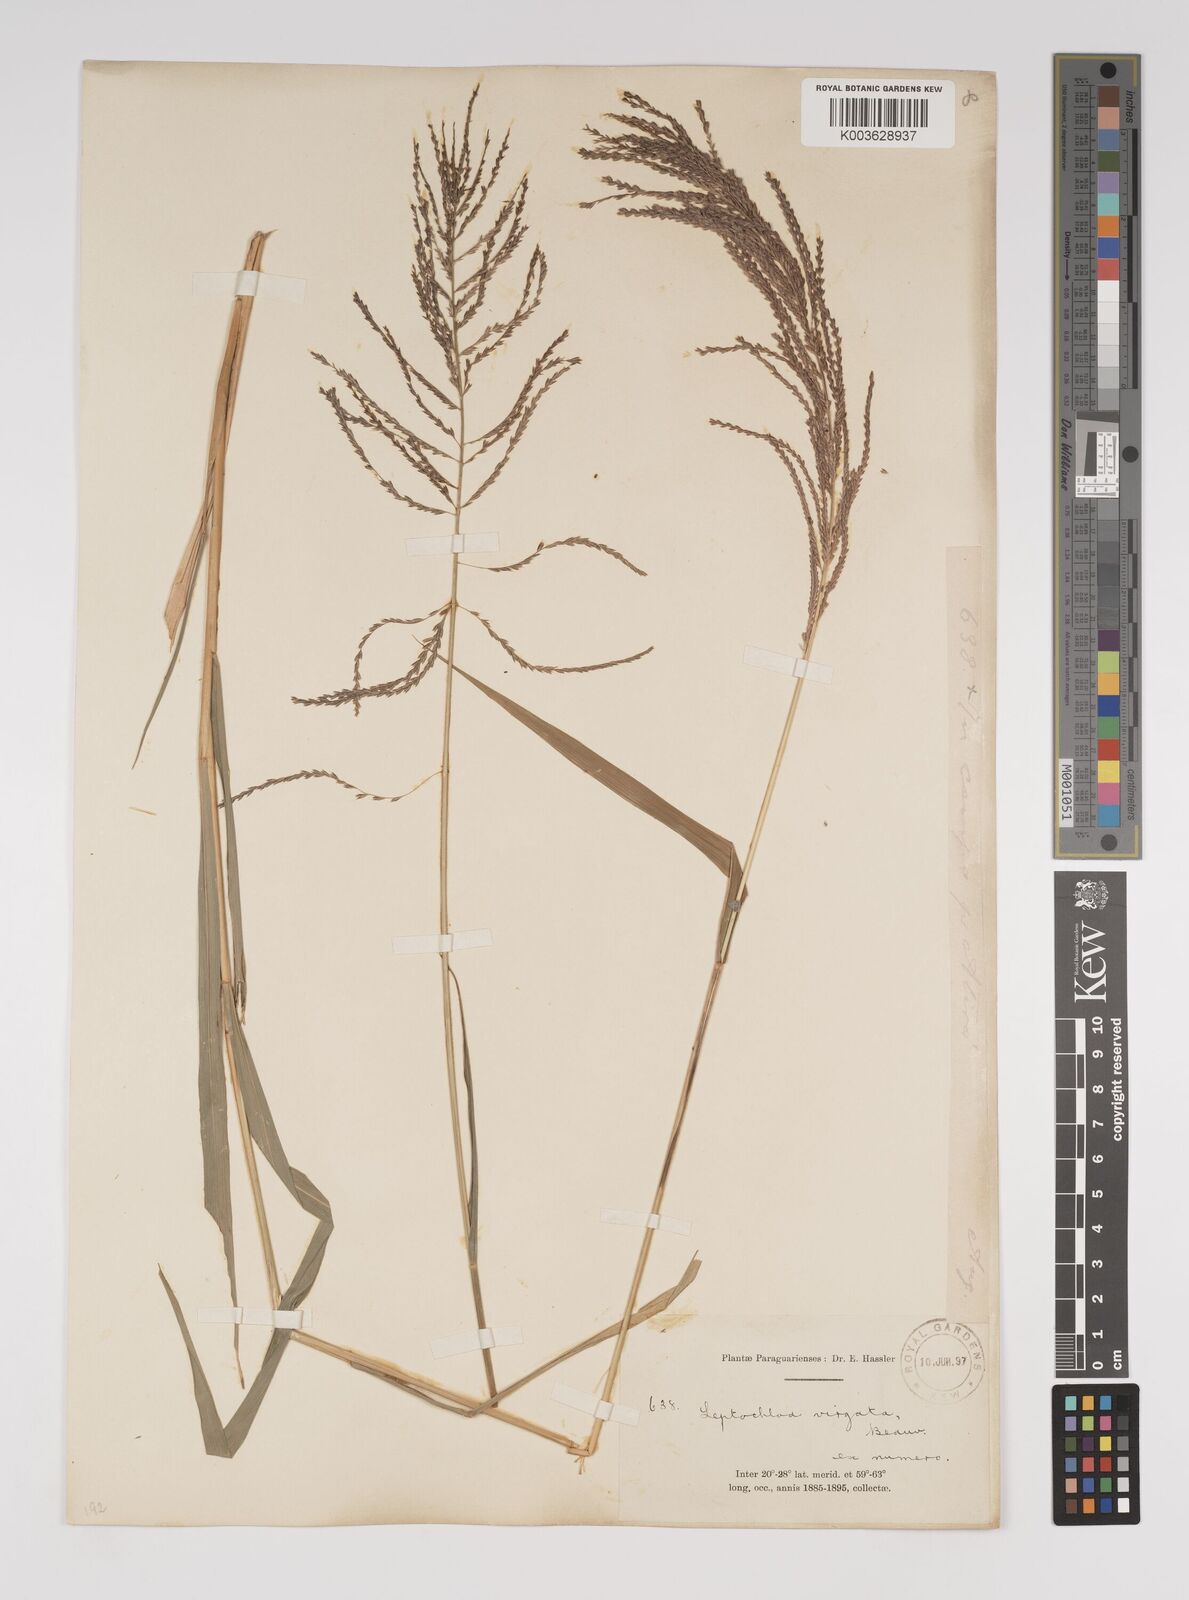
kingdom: Plantae
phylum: Tracheophyta
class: Liliopsida
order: Poales
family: Poaceae
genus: Leptochloa
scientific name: Leptochloa virgata
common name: Tropical sprangletop
